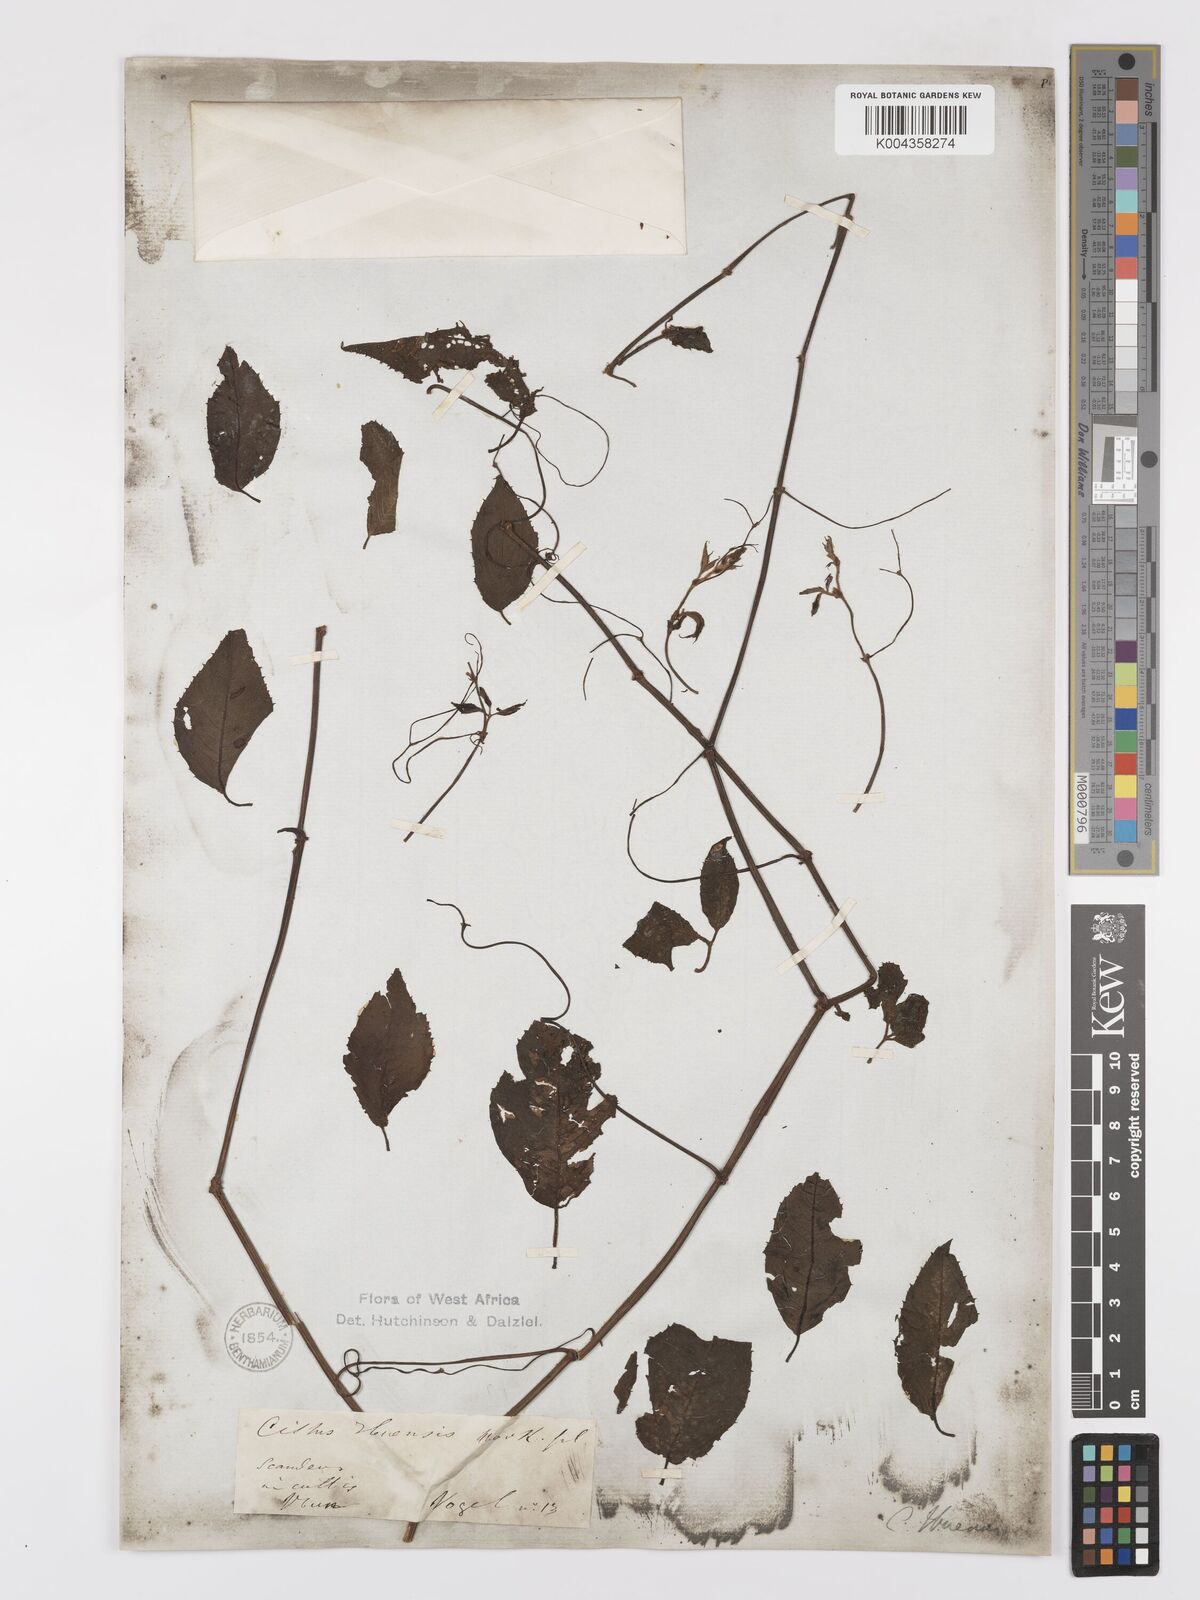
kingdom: Plantae
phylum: Tracheophyta
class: Magnoliopsida
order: Vitales
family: Vitaceae
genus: Afrocayratia
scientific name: Afrocayratia ibuensis
